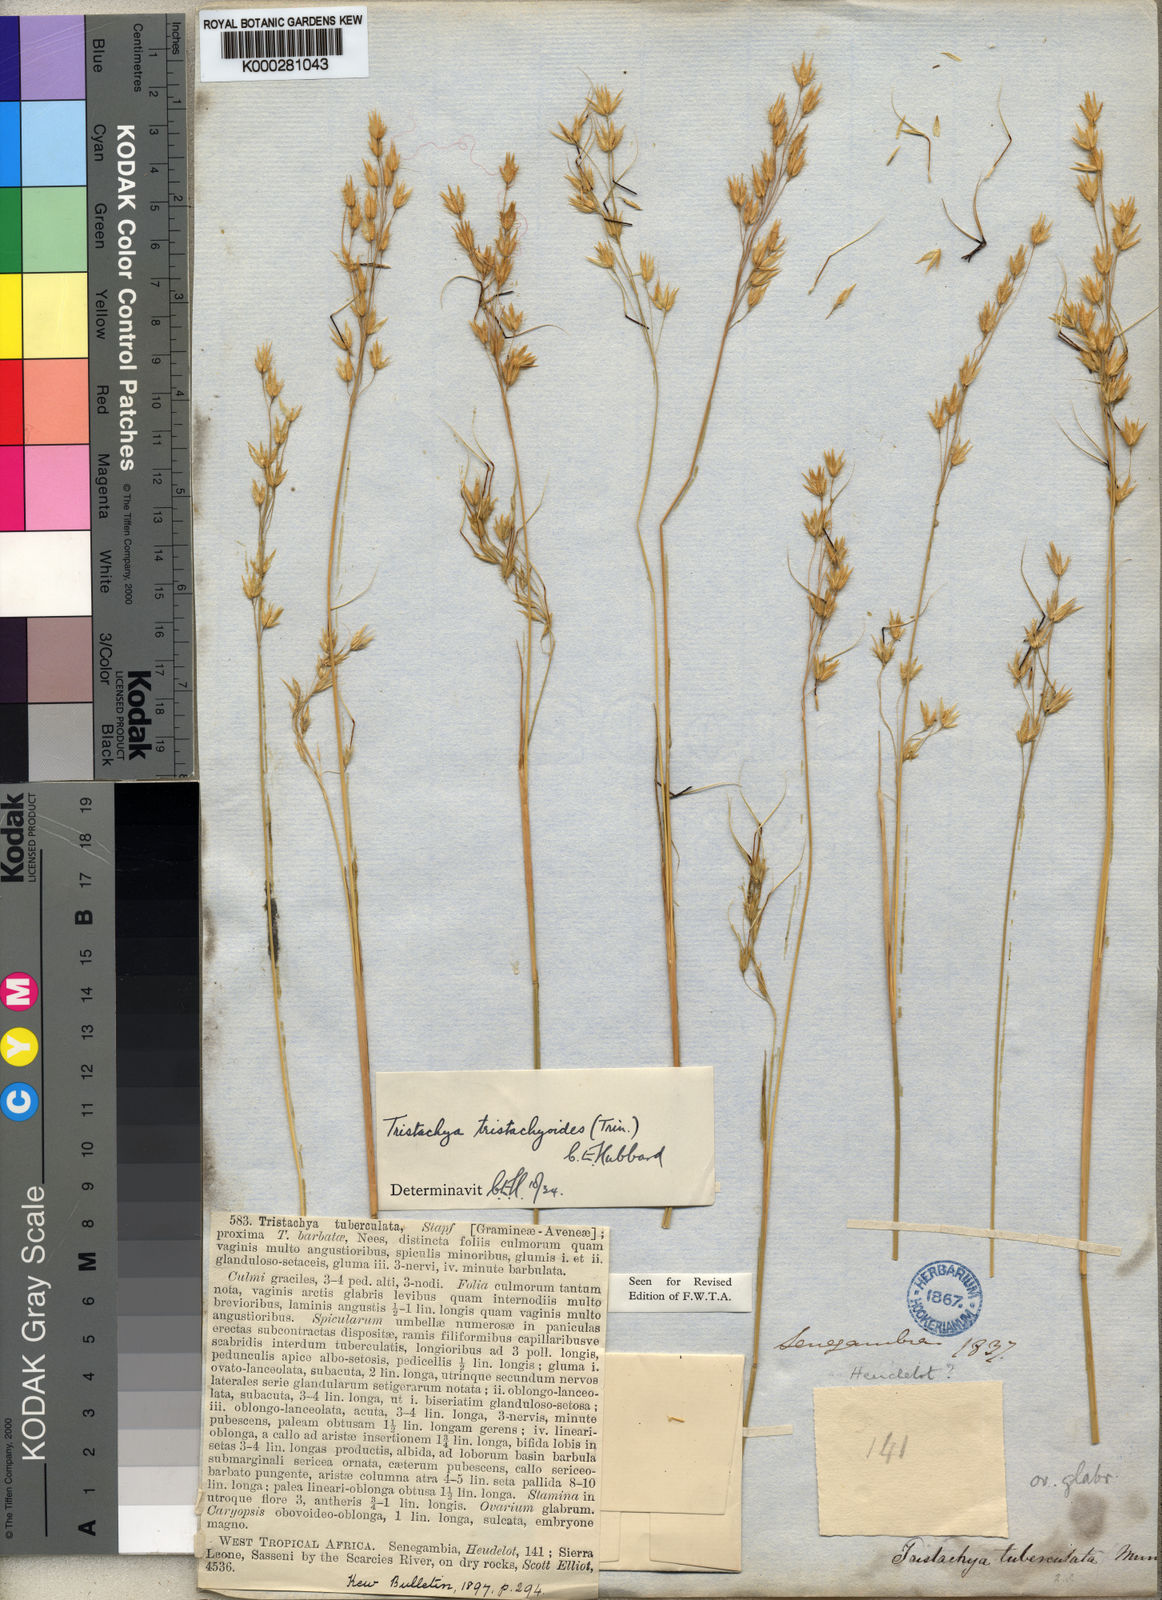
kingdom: Plantae
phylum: Tracheophyta
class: Liliopsida
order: Poales
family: Poaceae
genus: Dilophotriche
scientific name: Dilophotriche
